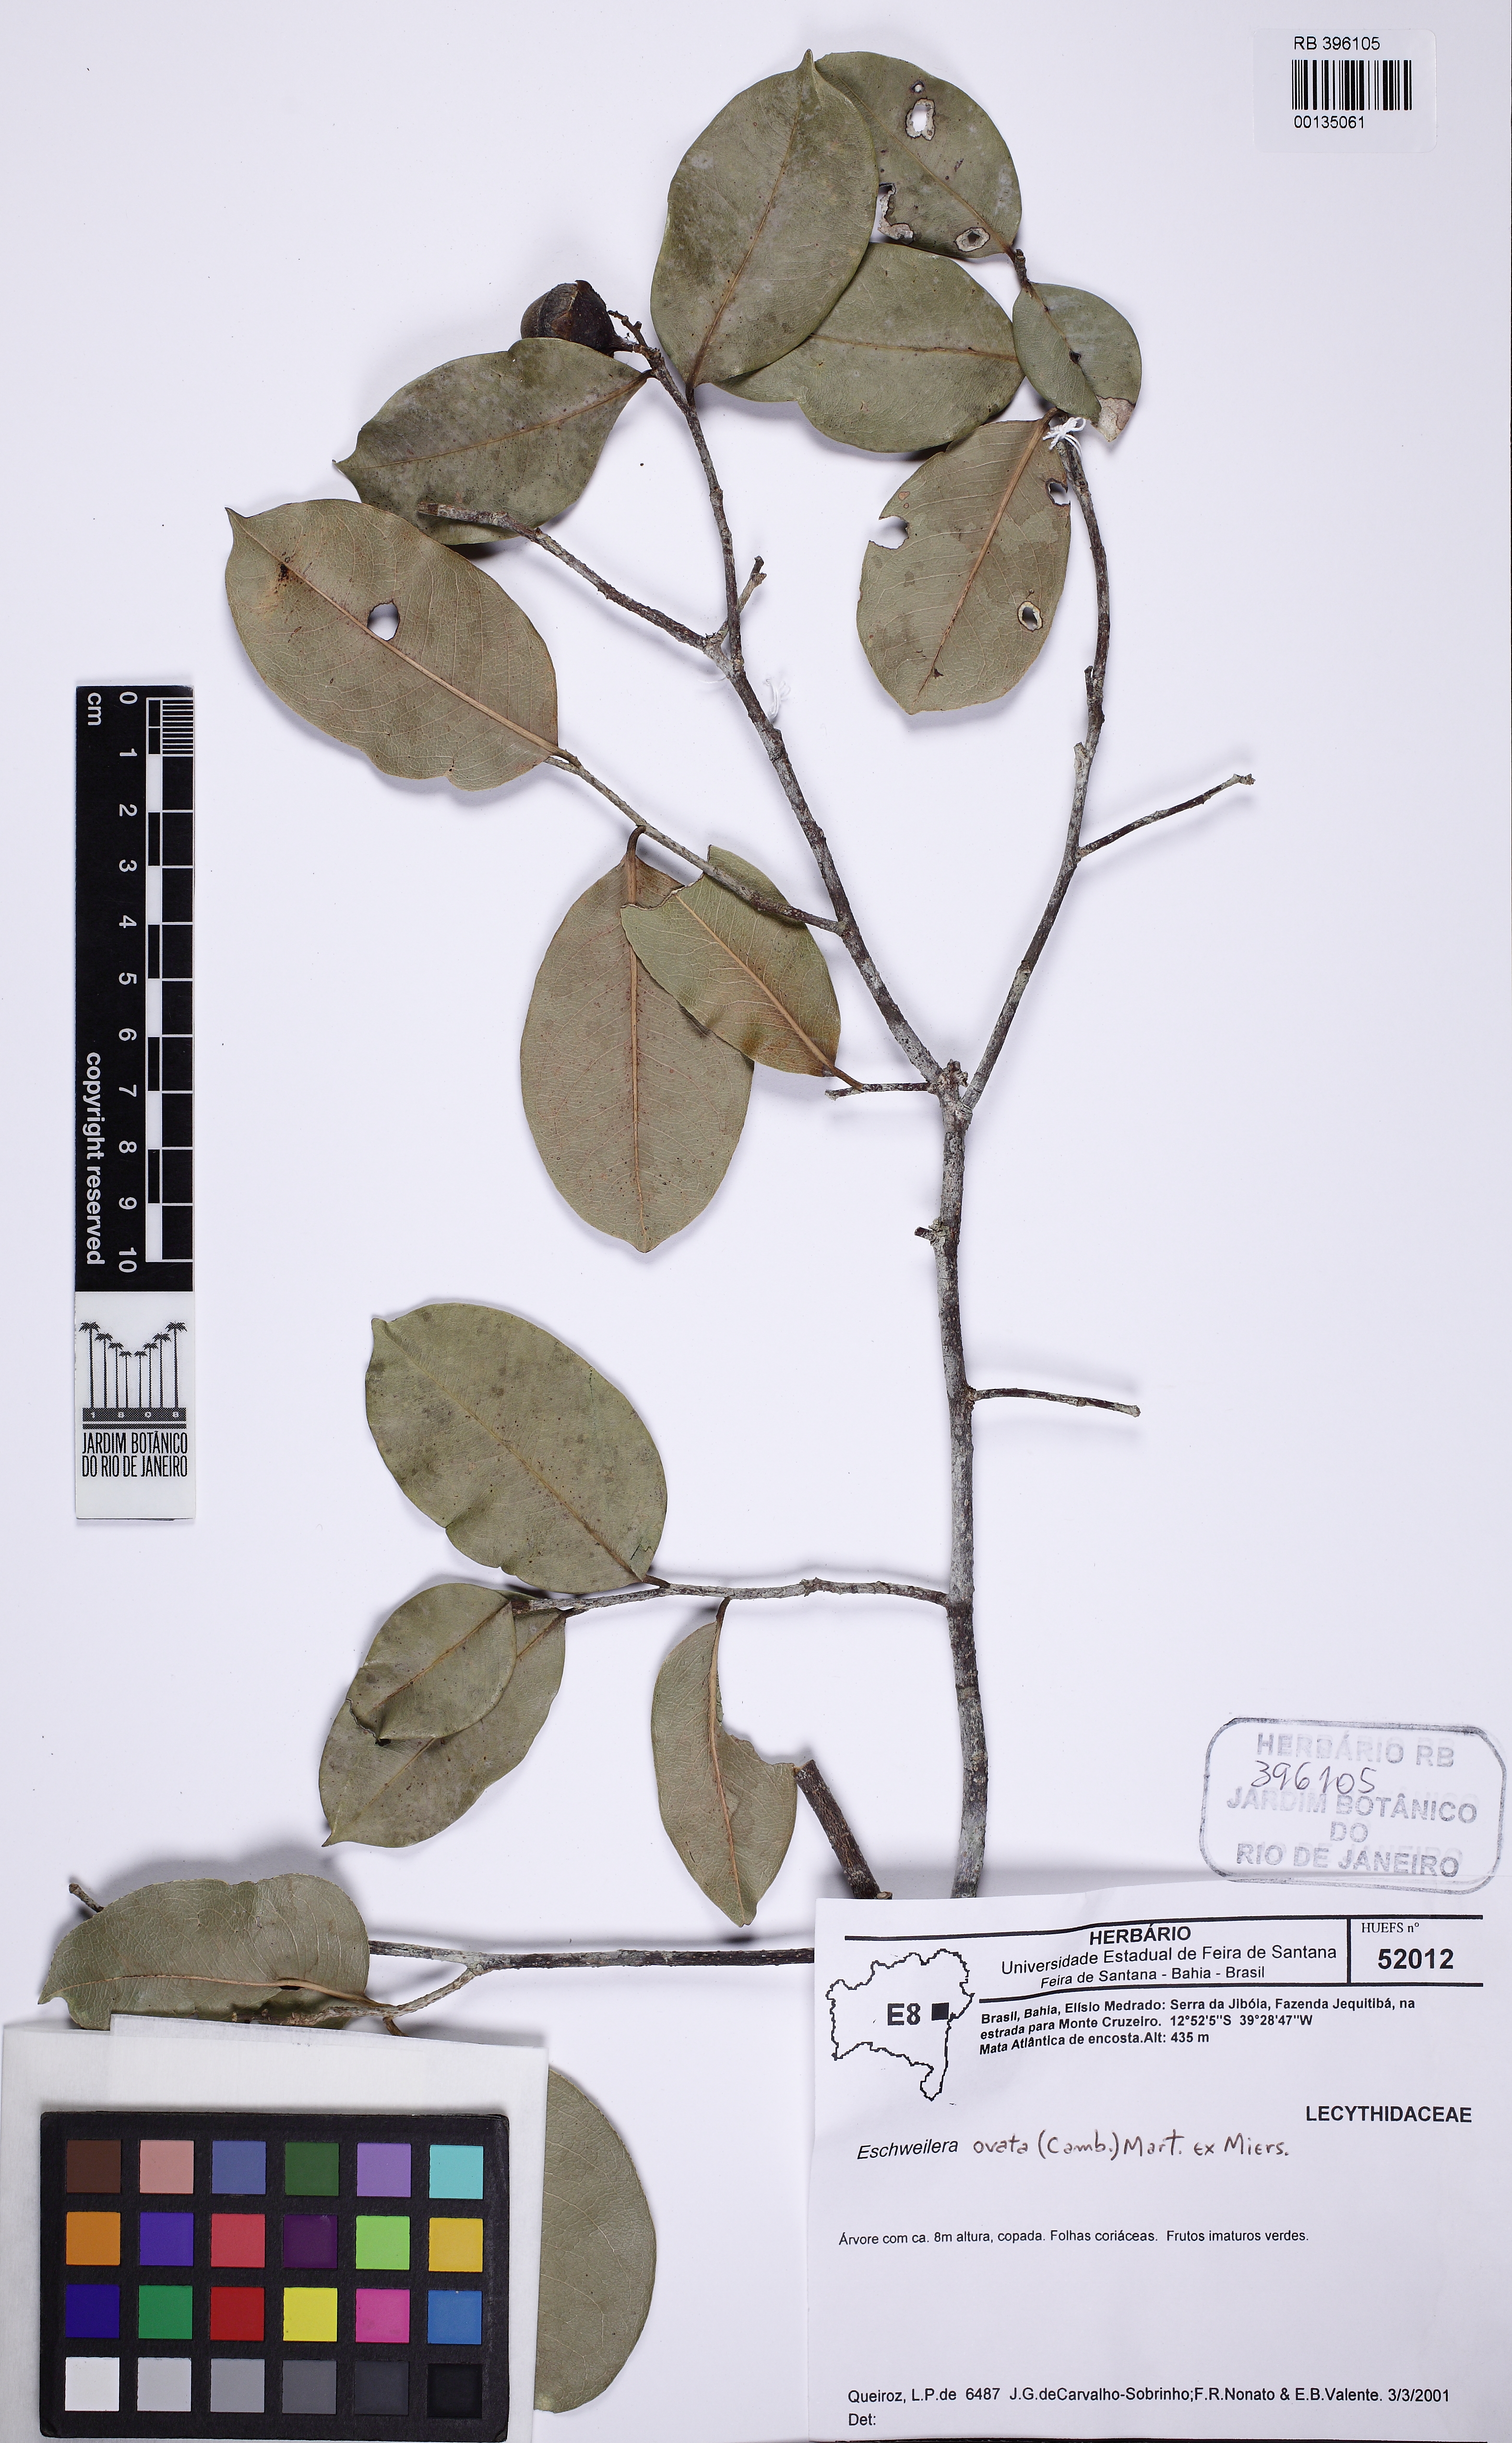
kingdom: Plantae
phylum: Tracheophyta
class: Magnoliopsida
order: Ericales
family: Lecythidaceae
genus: Eschweilera
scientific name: Eschweilera ovata
